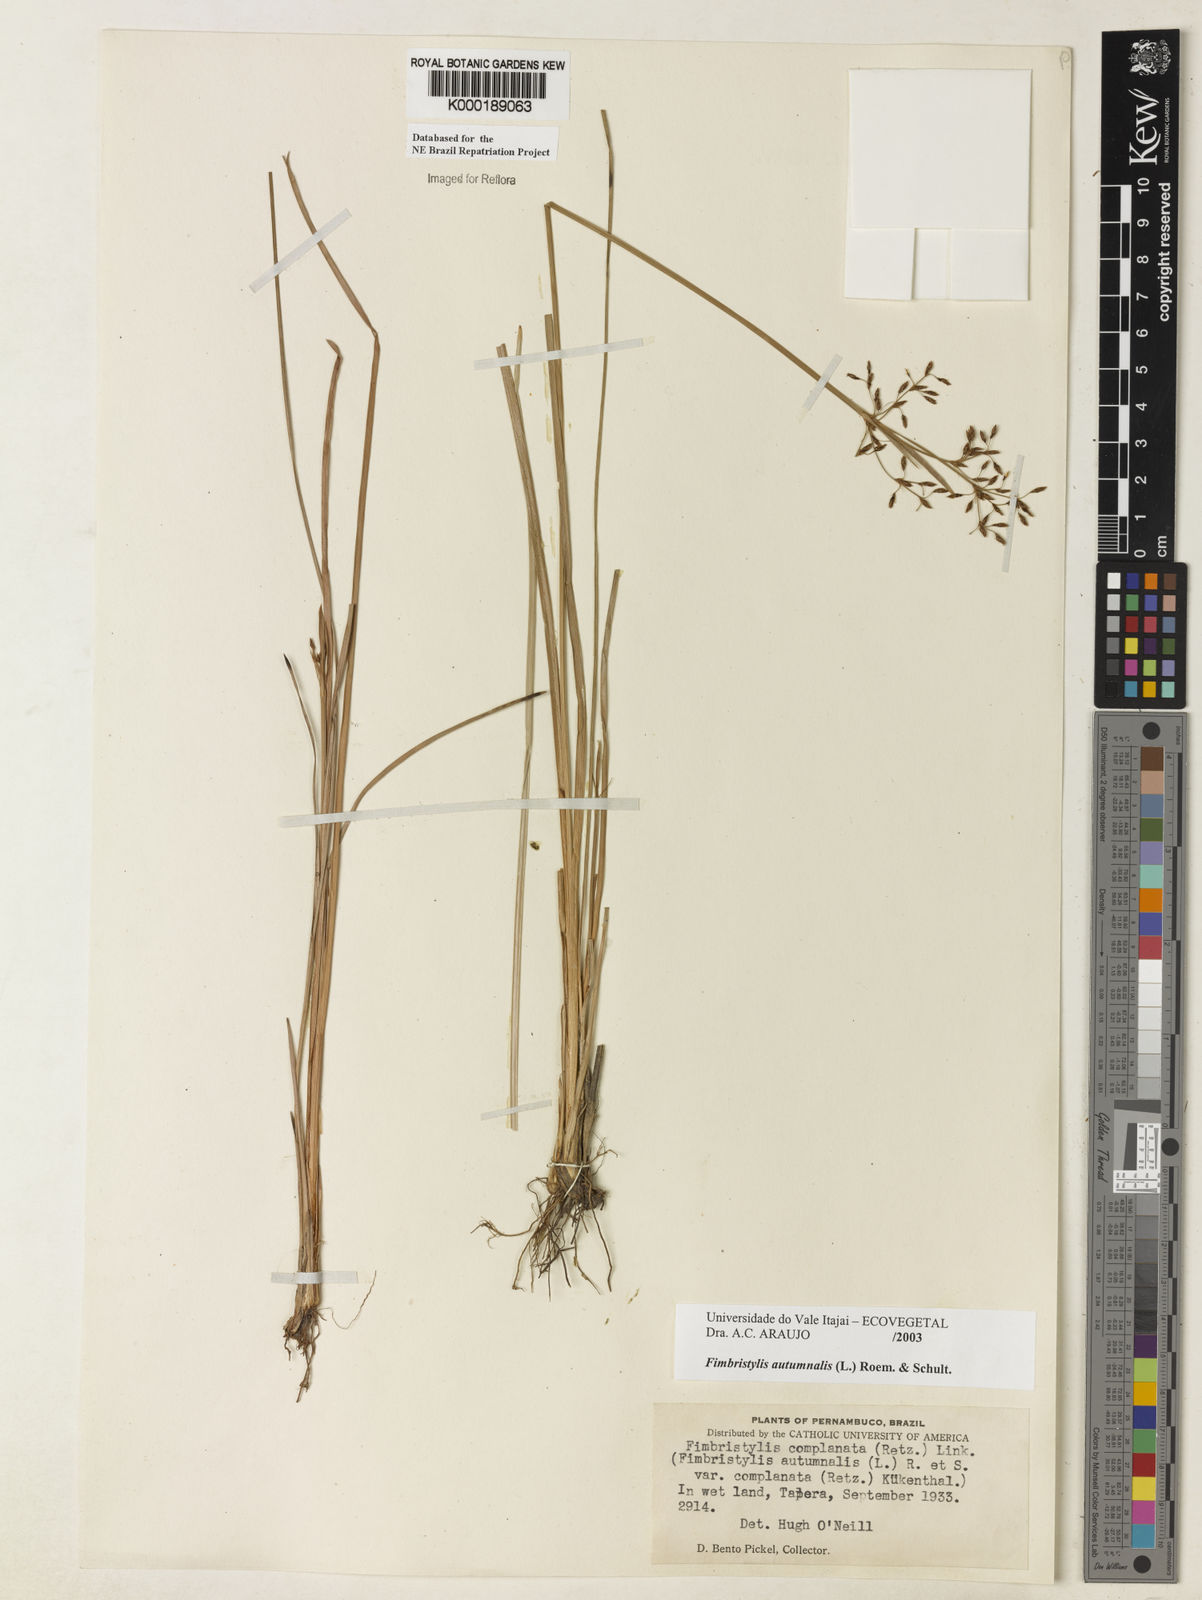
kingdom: Plantae
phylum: Tracheophyta
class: Liliopsida
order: Poales
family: Cyperaceae
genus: Fimbristylis
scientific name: Fimbristylis autumnalis
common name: Slender fimbristylis
